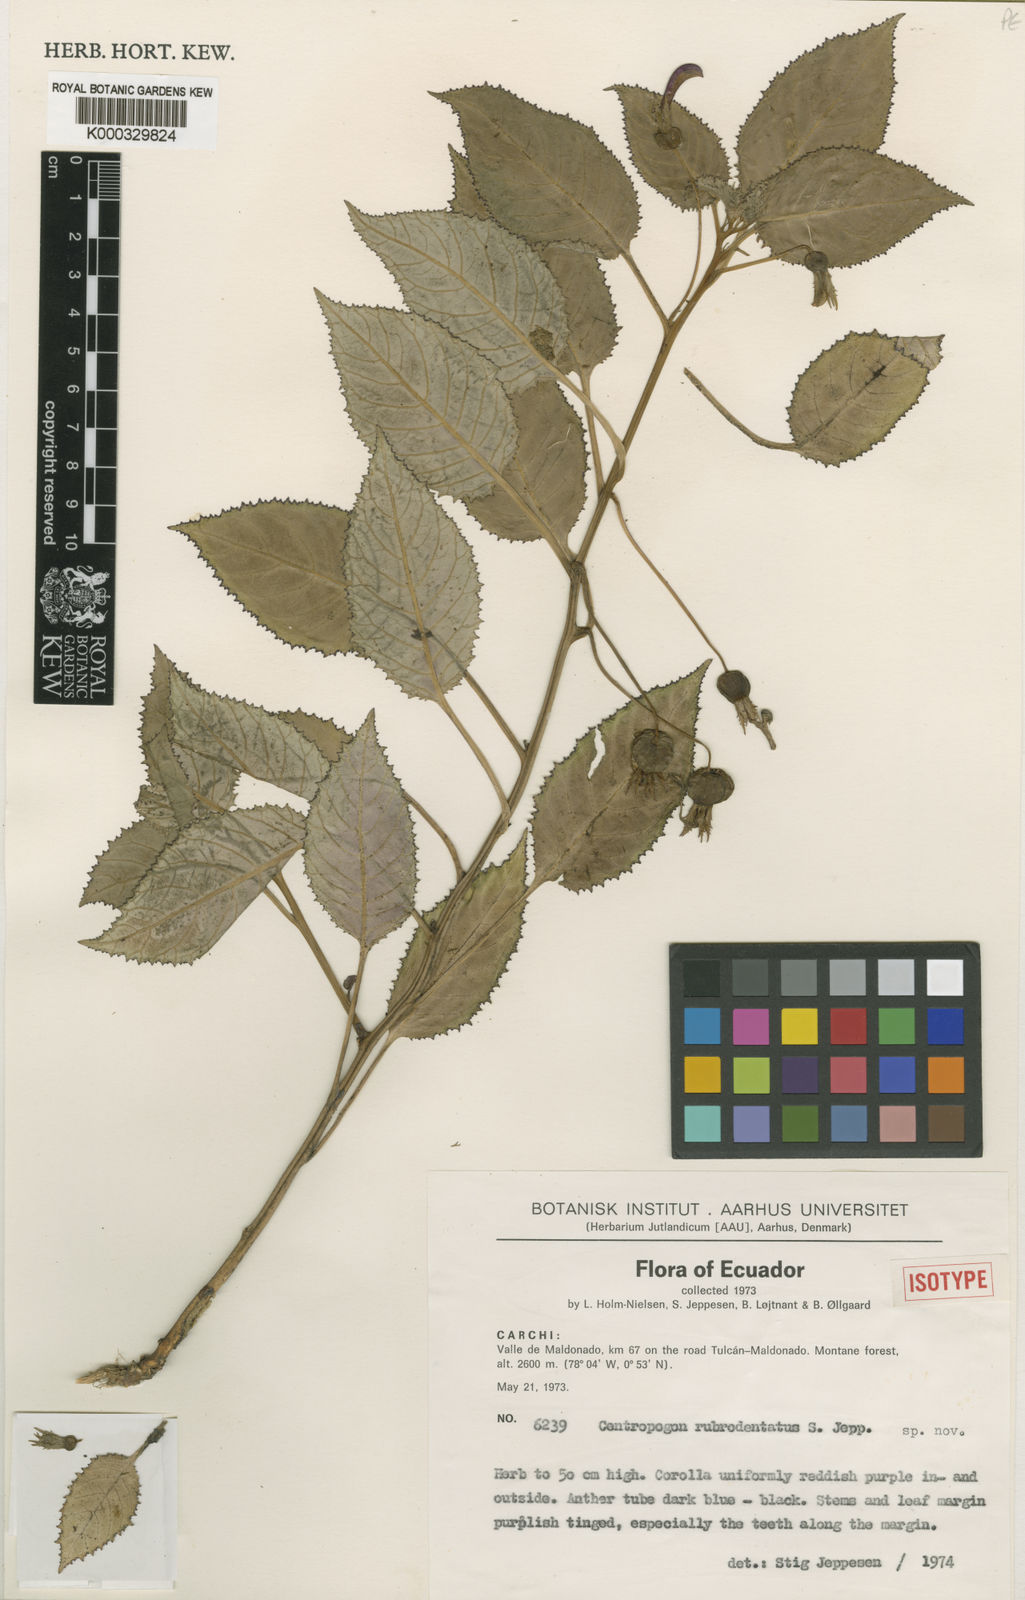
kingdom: Plantae
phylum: Tracheophyta
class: Magnoliopsida
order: Asterales
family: Campanulaceae
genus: Centropogon
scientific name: Centropogon rubrodentatus
